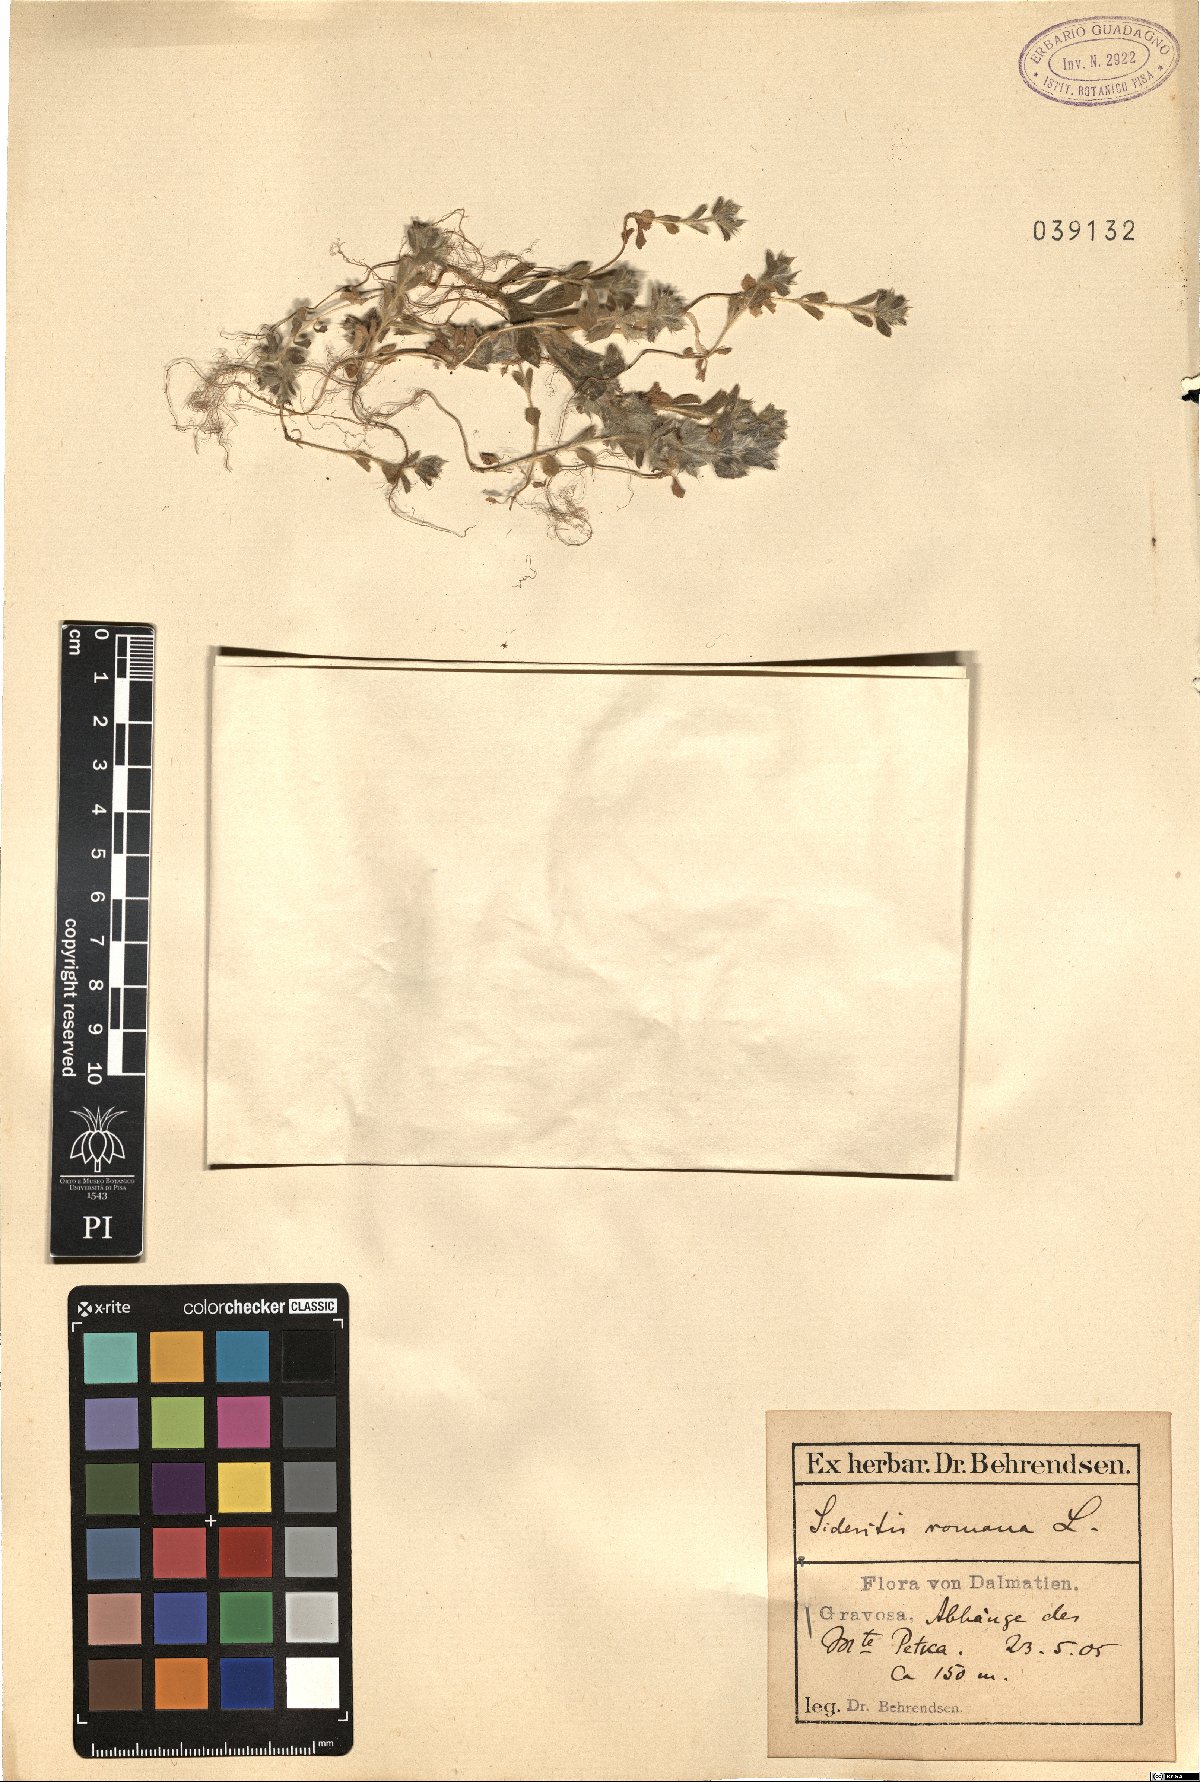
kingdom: Plantae
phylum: Tracheophyta
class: Magnoliopsida
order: Lamiales
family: Lamiaceae
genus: Sideritis
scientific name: Sideritis romana
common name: Simplebeak ironwort
